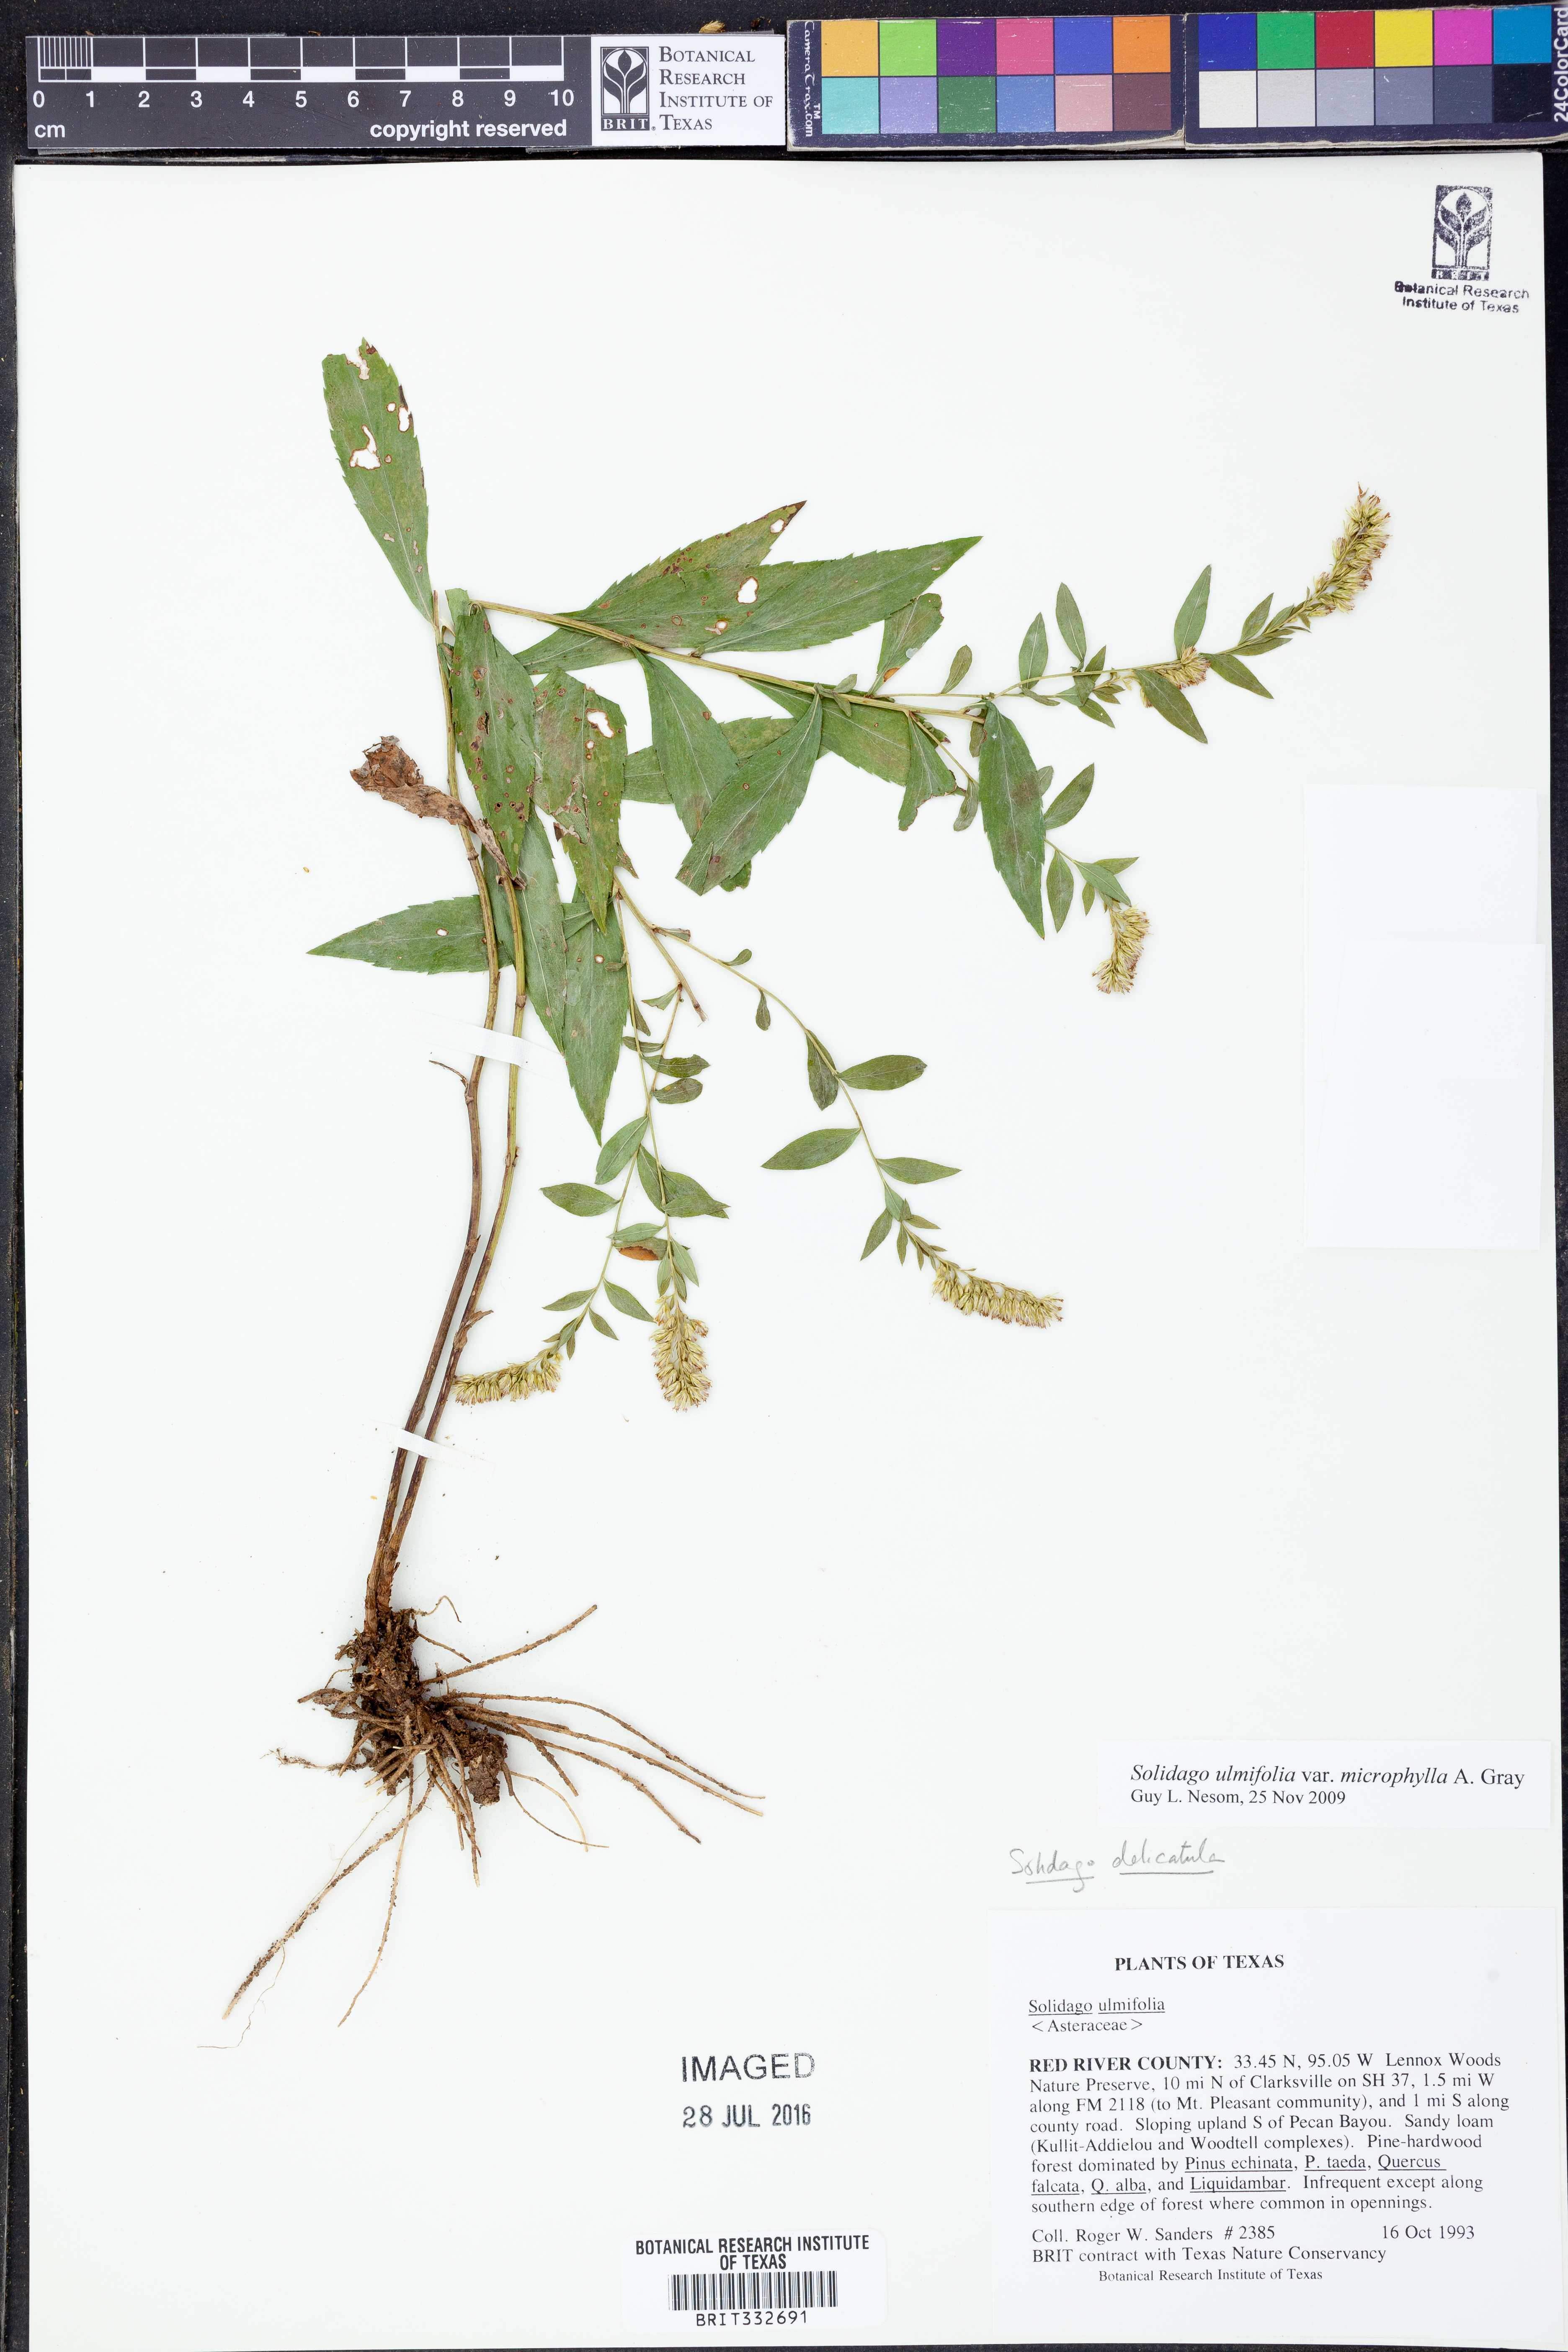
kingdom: Plantae
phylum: Tracheophyta
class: Magnoliopsida
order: Asterales
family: Asteraceae
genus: Solidago
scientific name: Solidago delicatula
